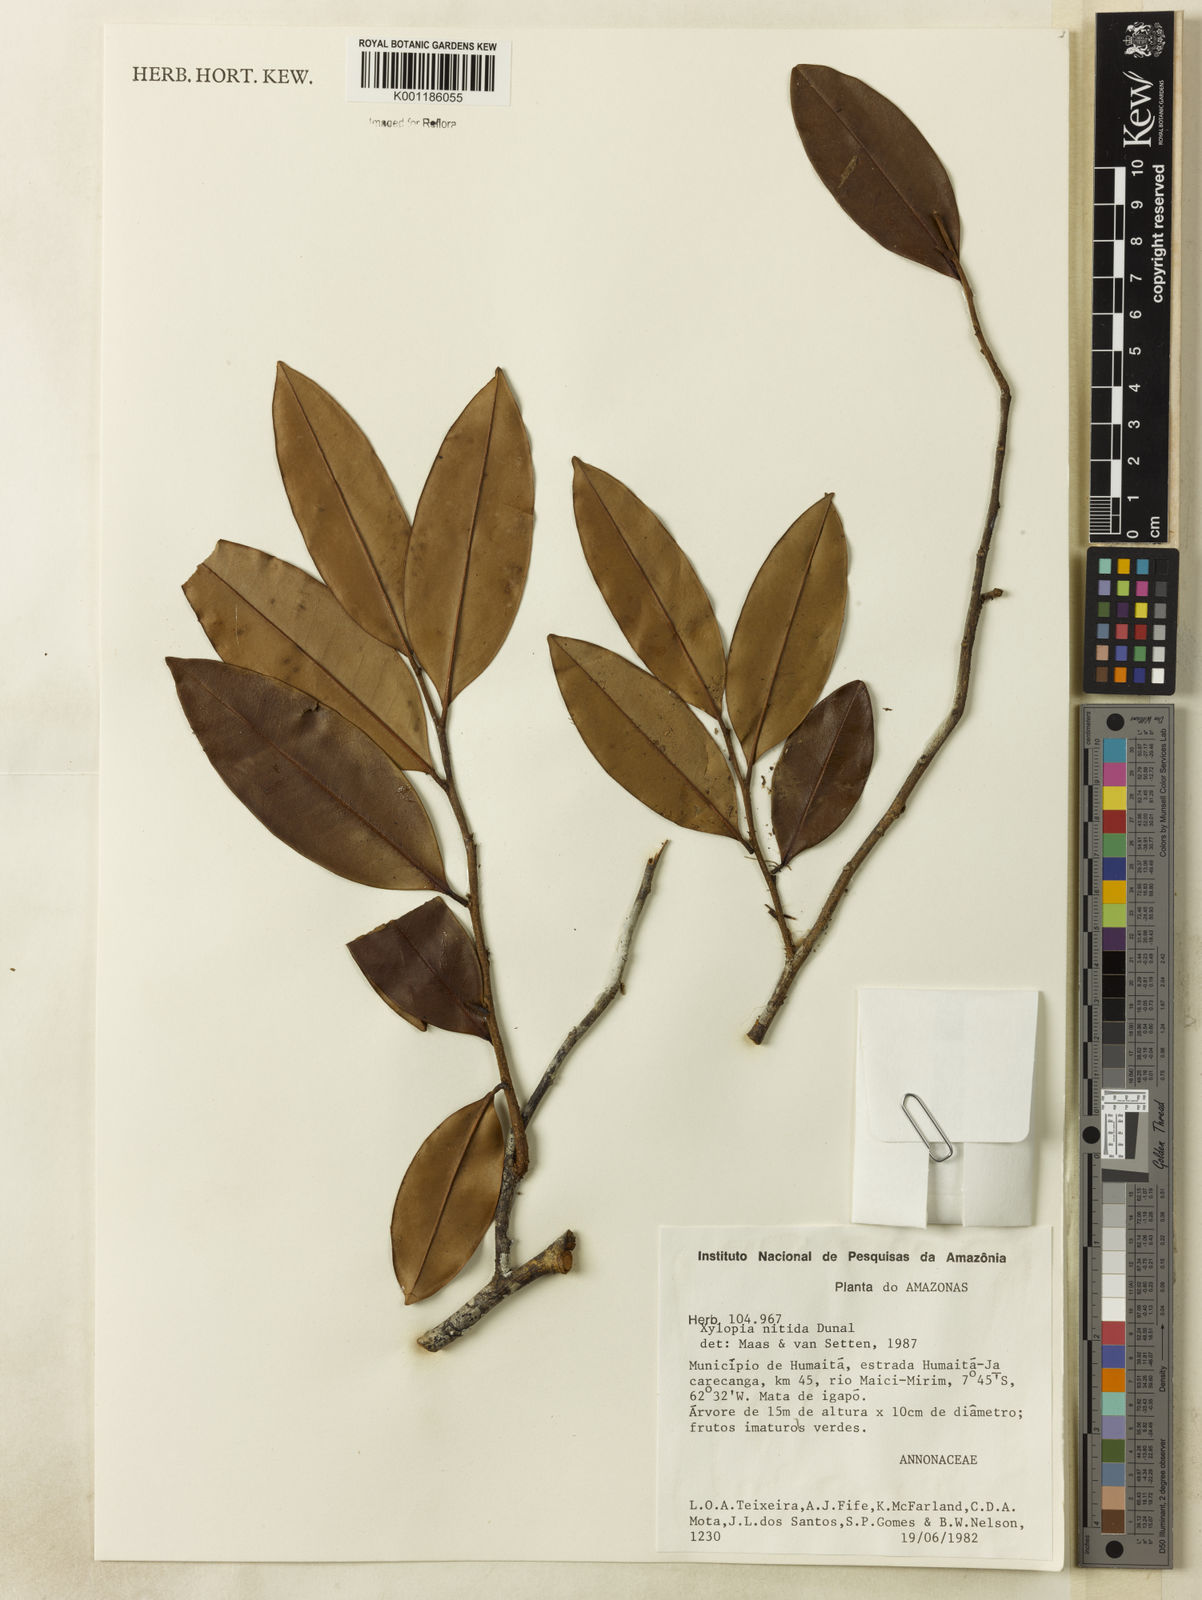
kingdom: Plantae
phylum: Tracheophyta
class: Magnoliopsida
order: Magnoliales
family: Annonaceae
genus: Xylopia
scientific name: Xylopia nitida
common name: White kuyama
